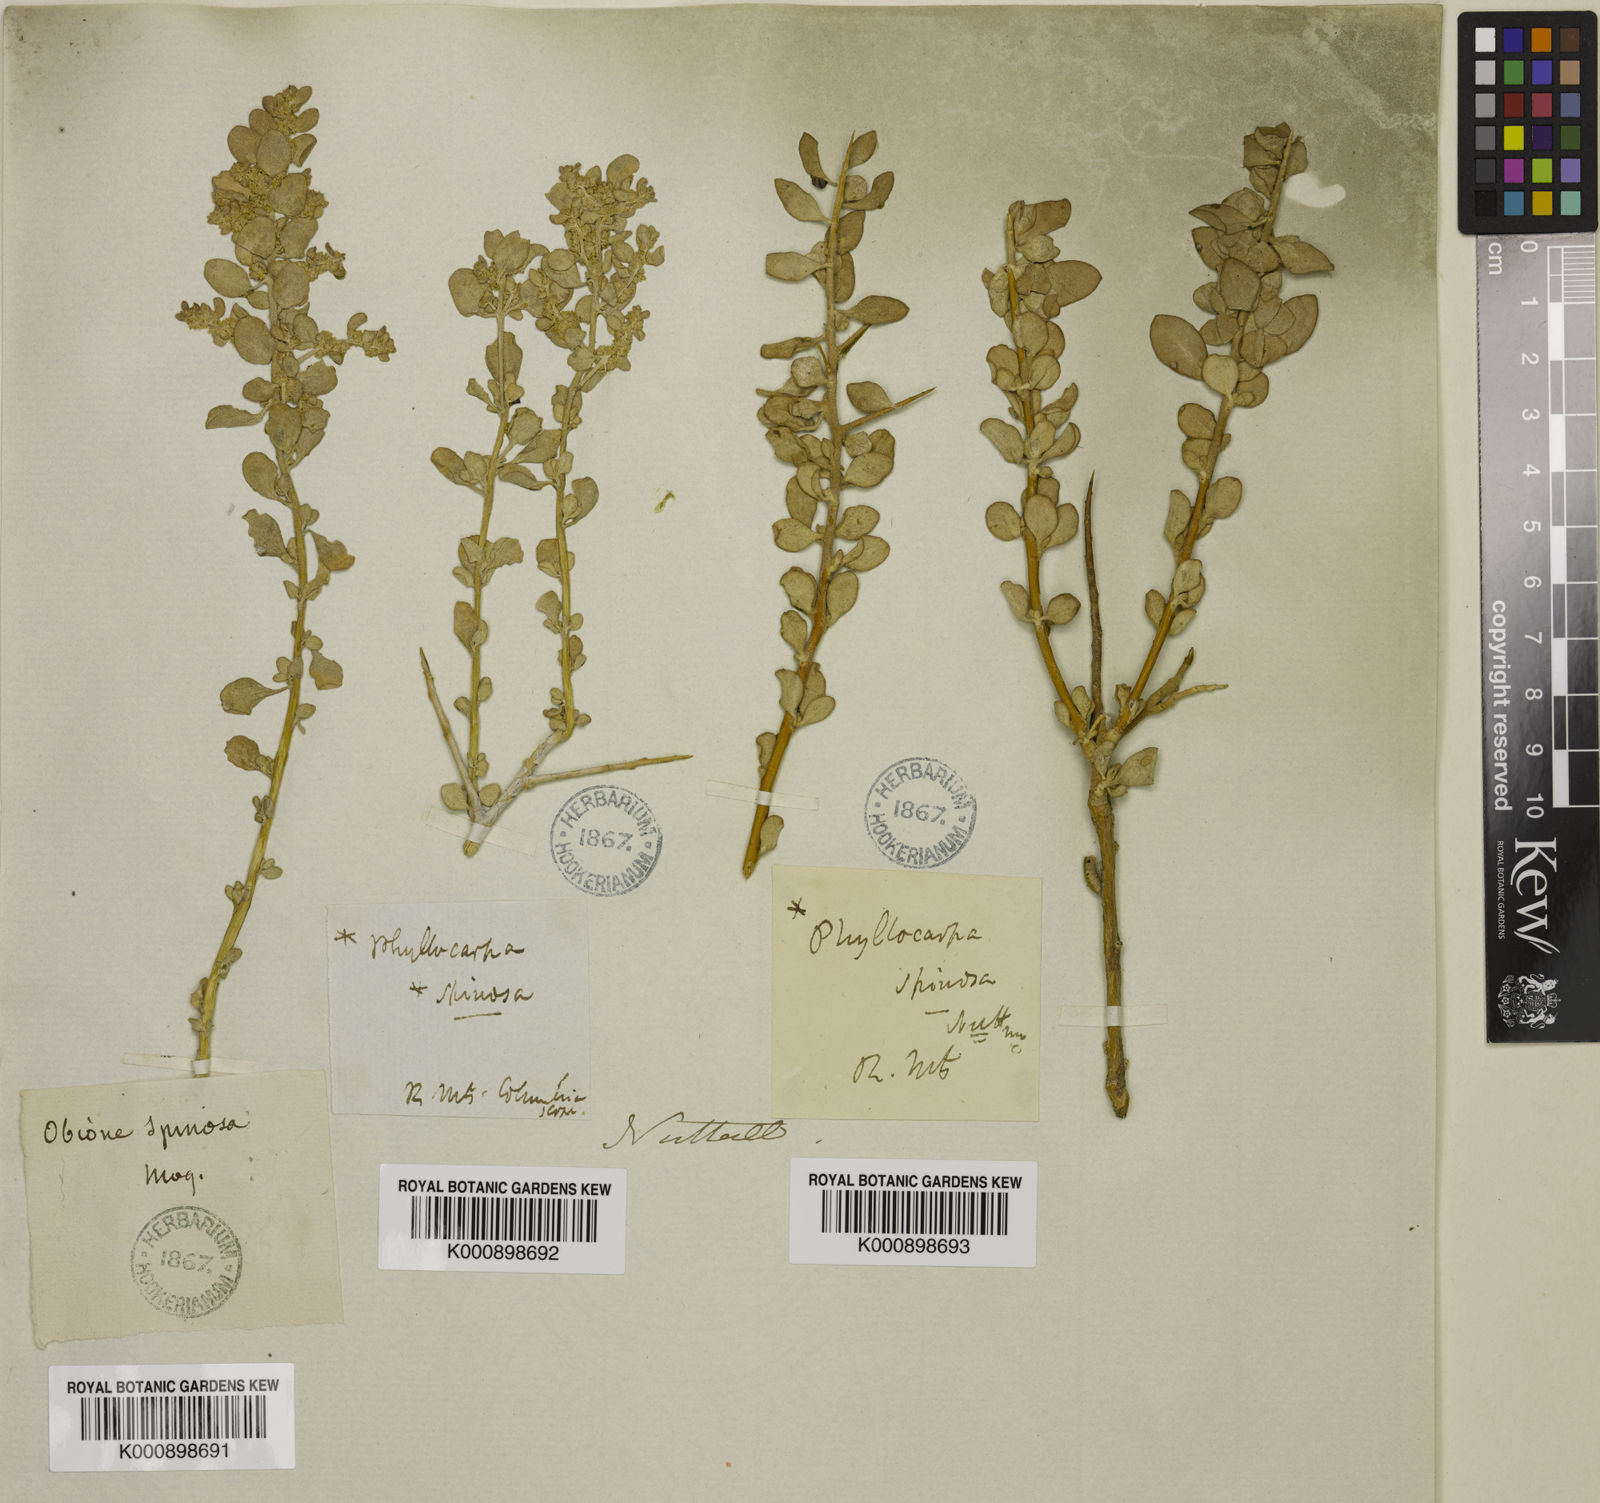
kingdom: Plantae
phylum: Tracheophyta
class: Magnoliopsida
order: Caryophyllales
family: Amaranthaceae
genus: Atriplex
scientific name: Atriplex
